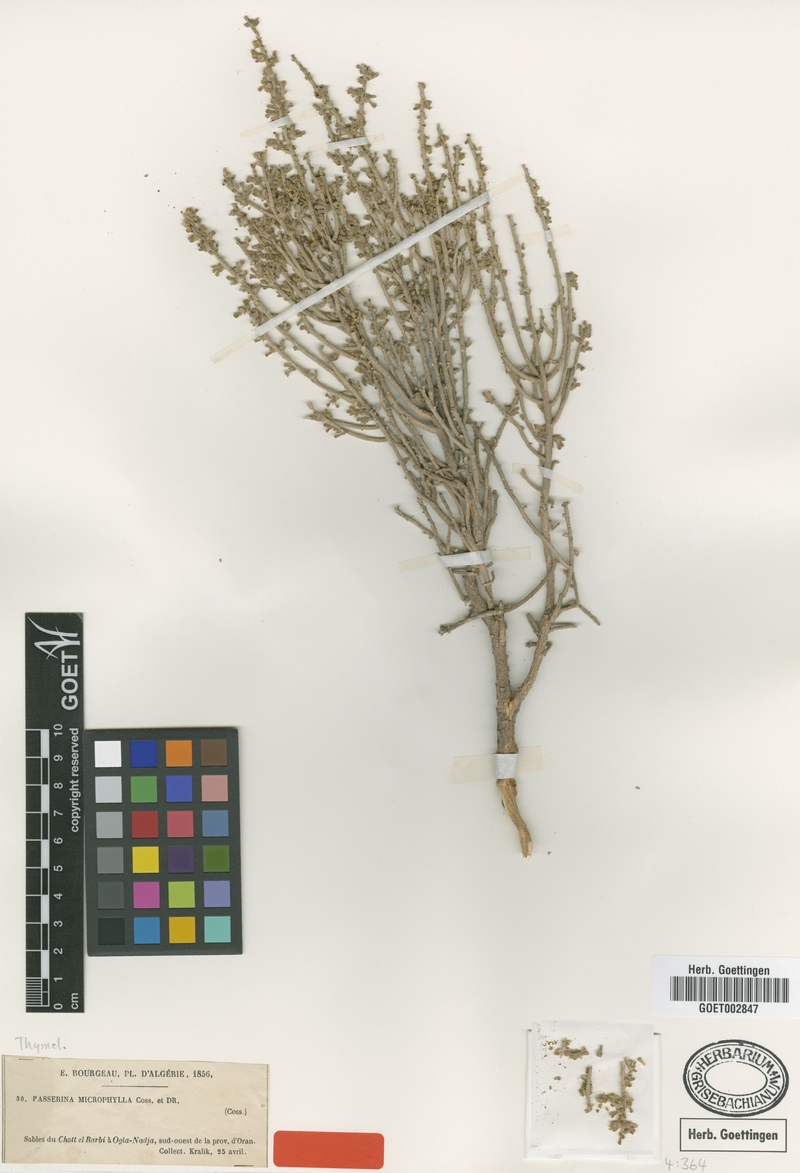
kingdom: Plantae
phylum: Tracheophyta
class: Magnoliopsida
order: Malvales
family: Thymelaeaceae
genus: Thymelaea
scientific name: Thymelaea microphylla
